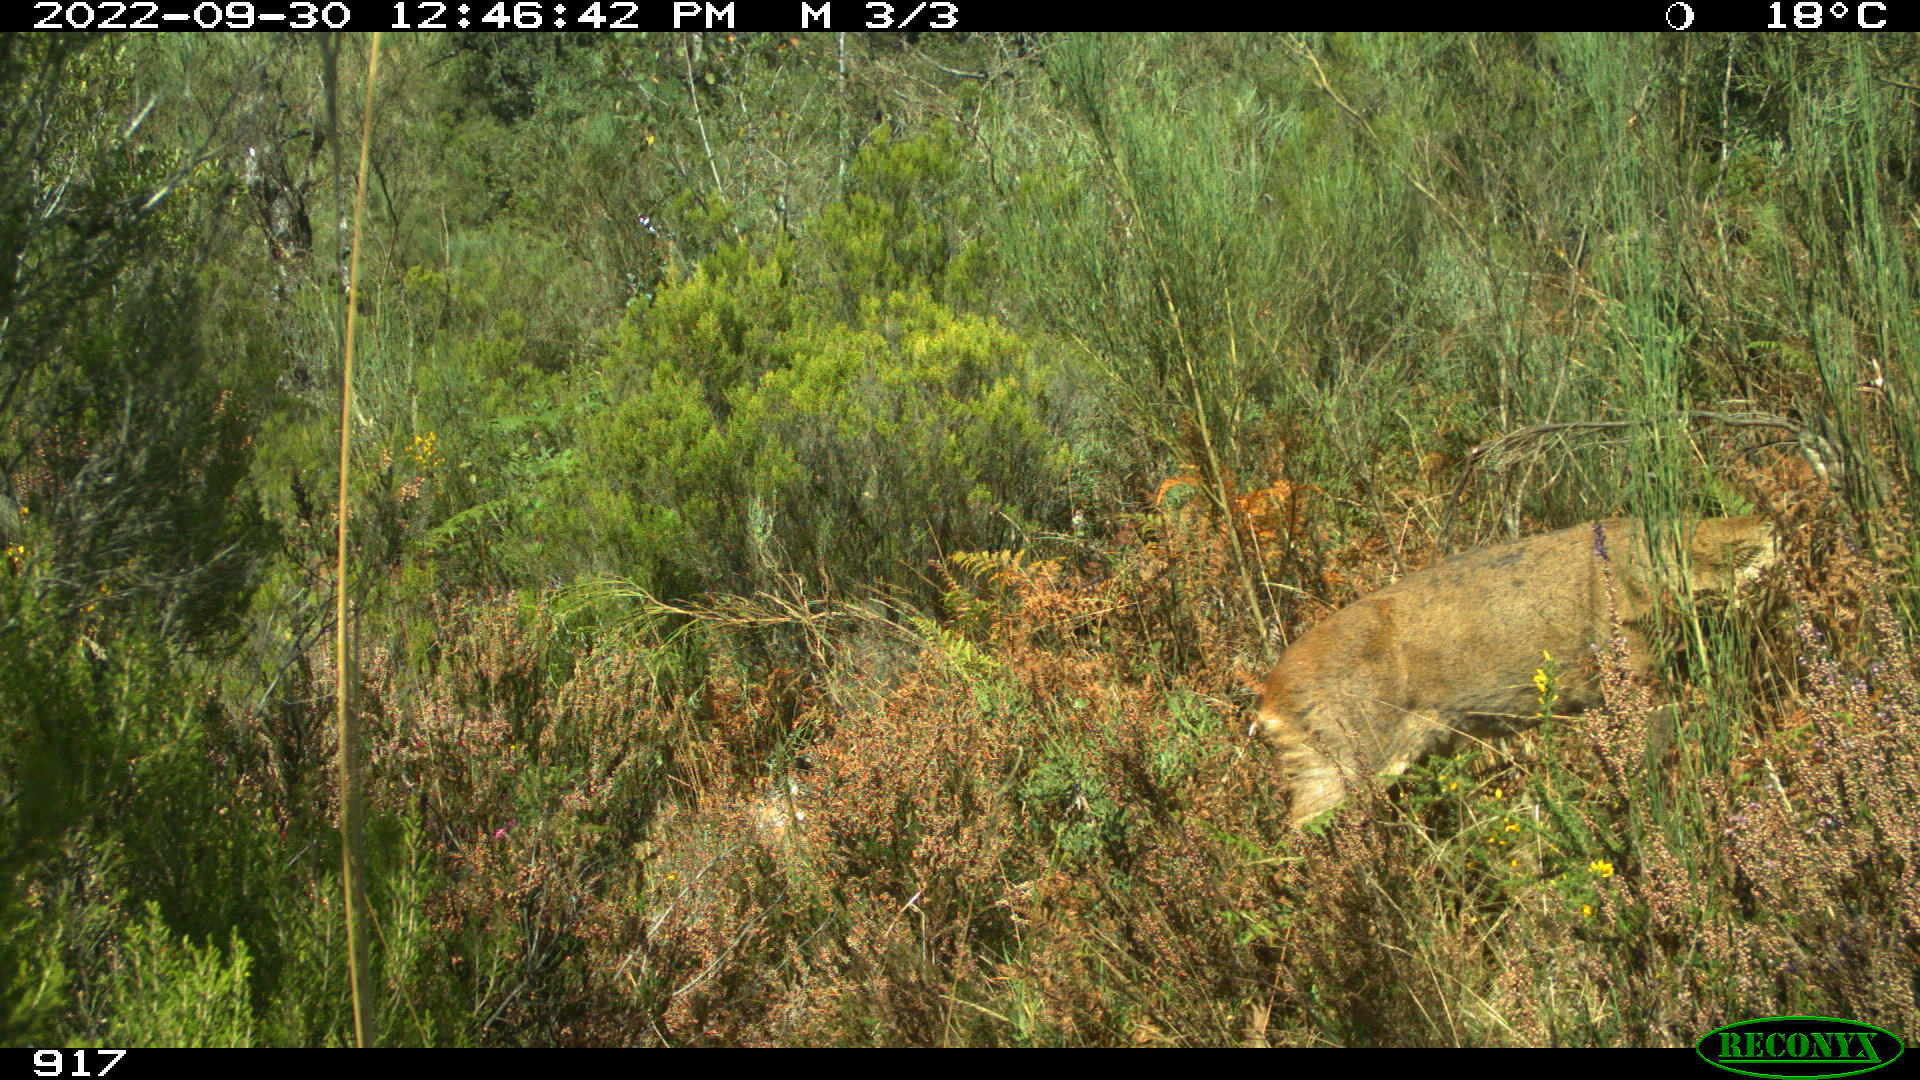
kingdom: Animalia
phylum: Chordata
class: Mammalia
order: Artiodactyla
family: Cervidae
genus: Capreolus
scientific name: Capreolus capreolus
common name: Western roe deer
